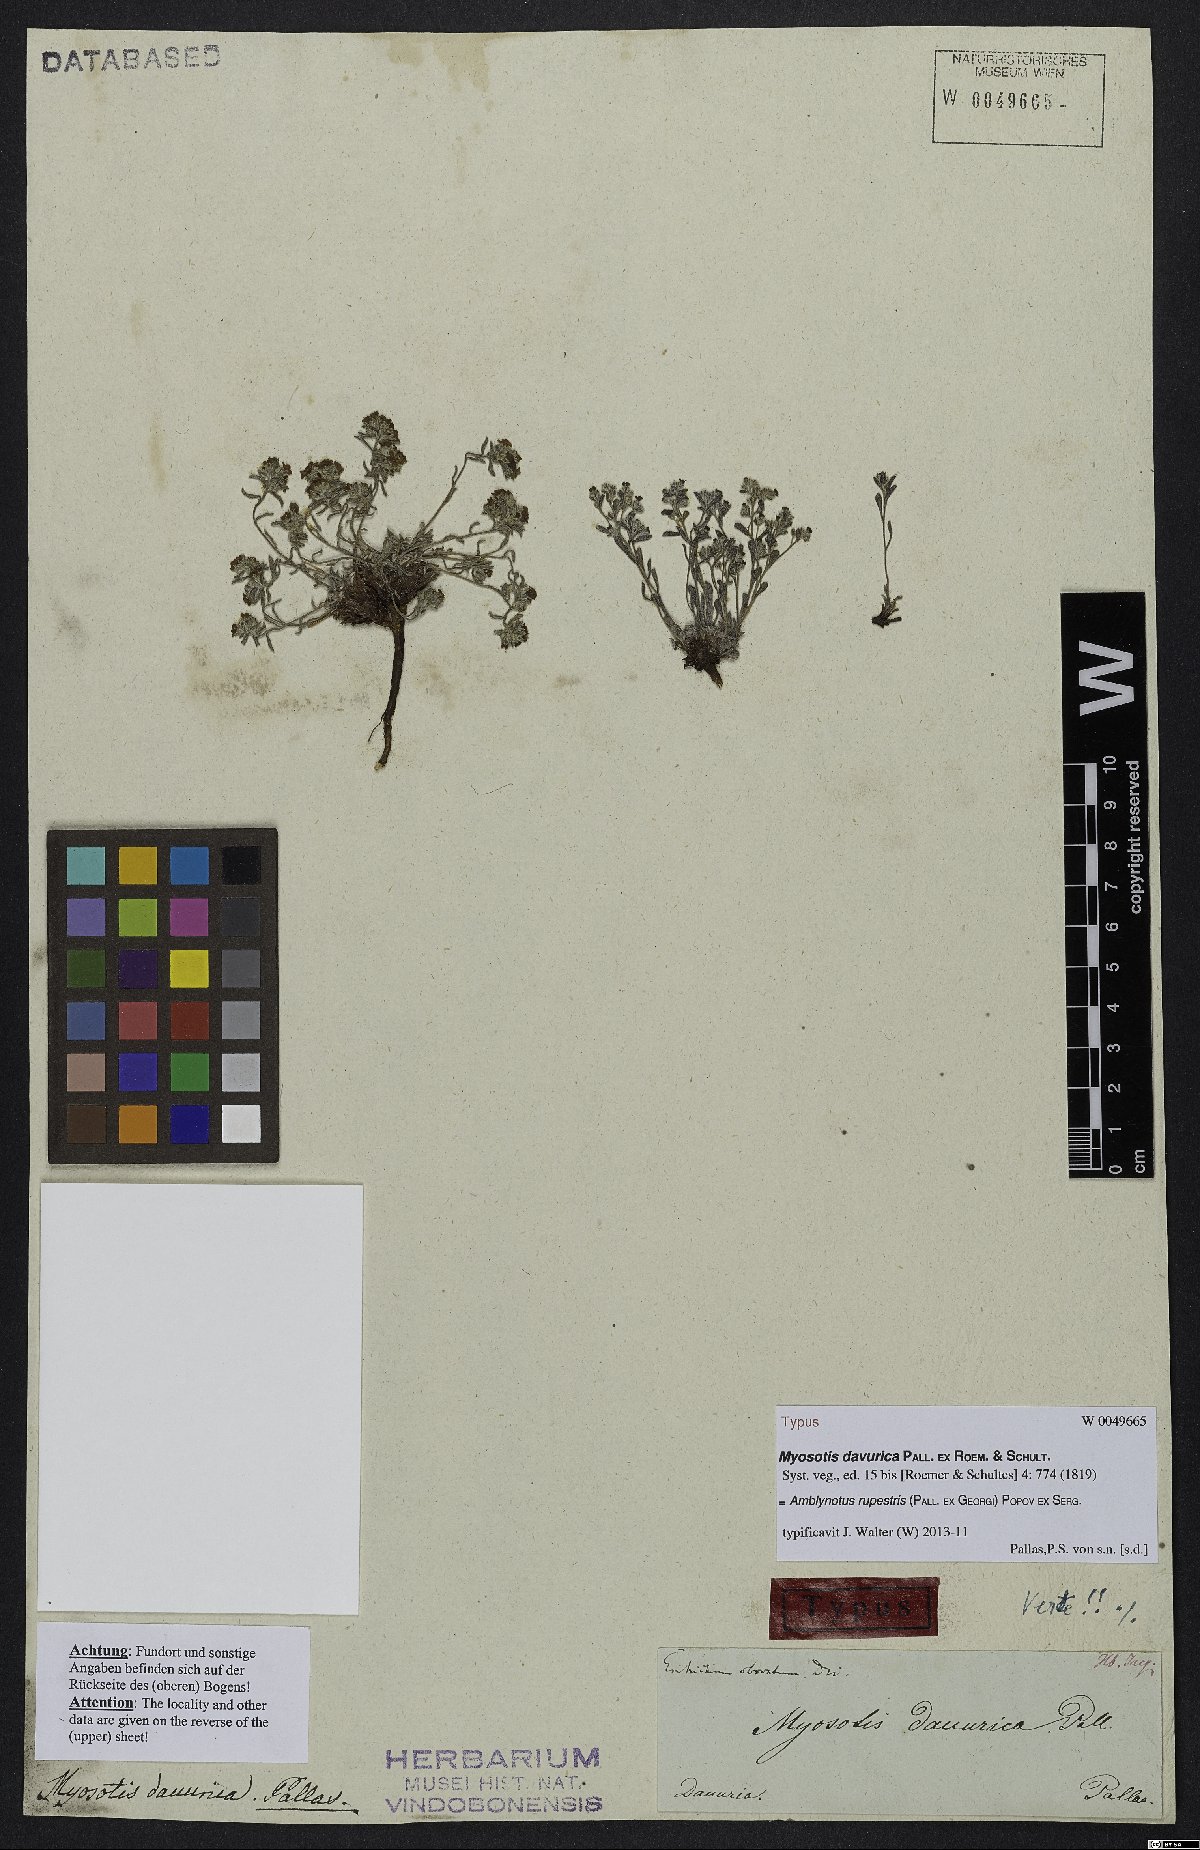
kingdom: Plantae
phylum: Tracheophyta
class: Magnoliopsida
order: Boraginales
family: Boraginaceae
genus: Eritrichium
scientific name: Eritrichium rupestre
